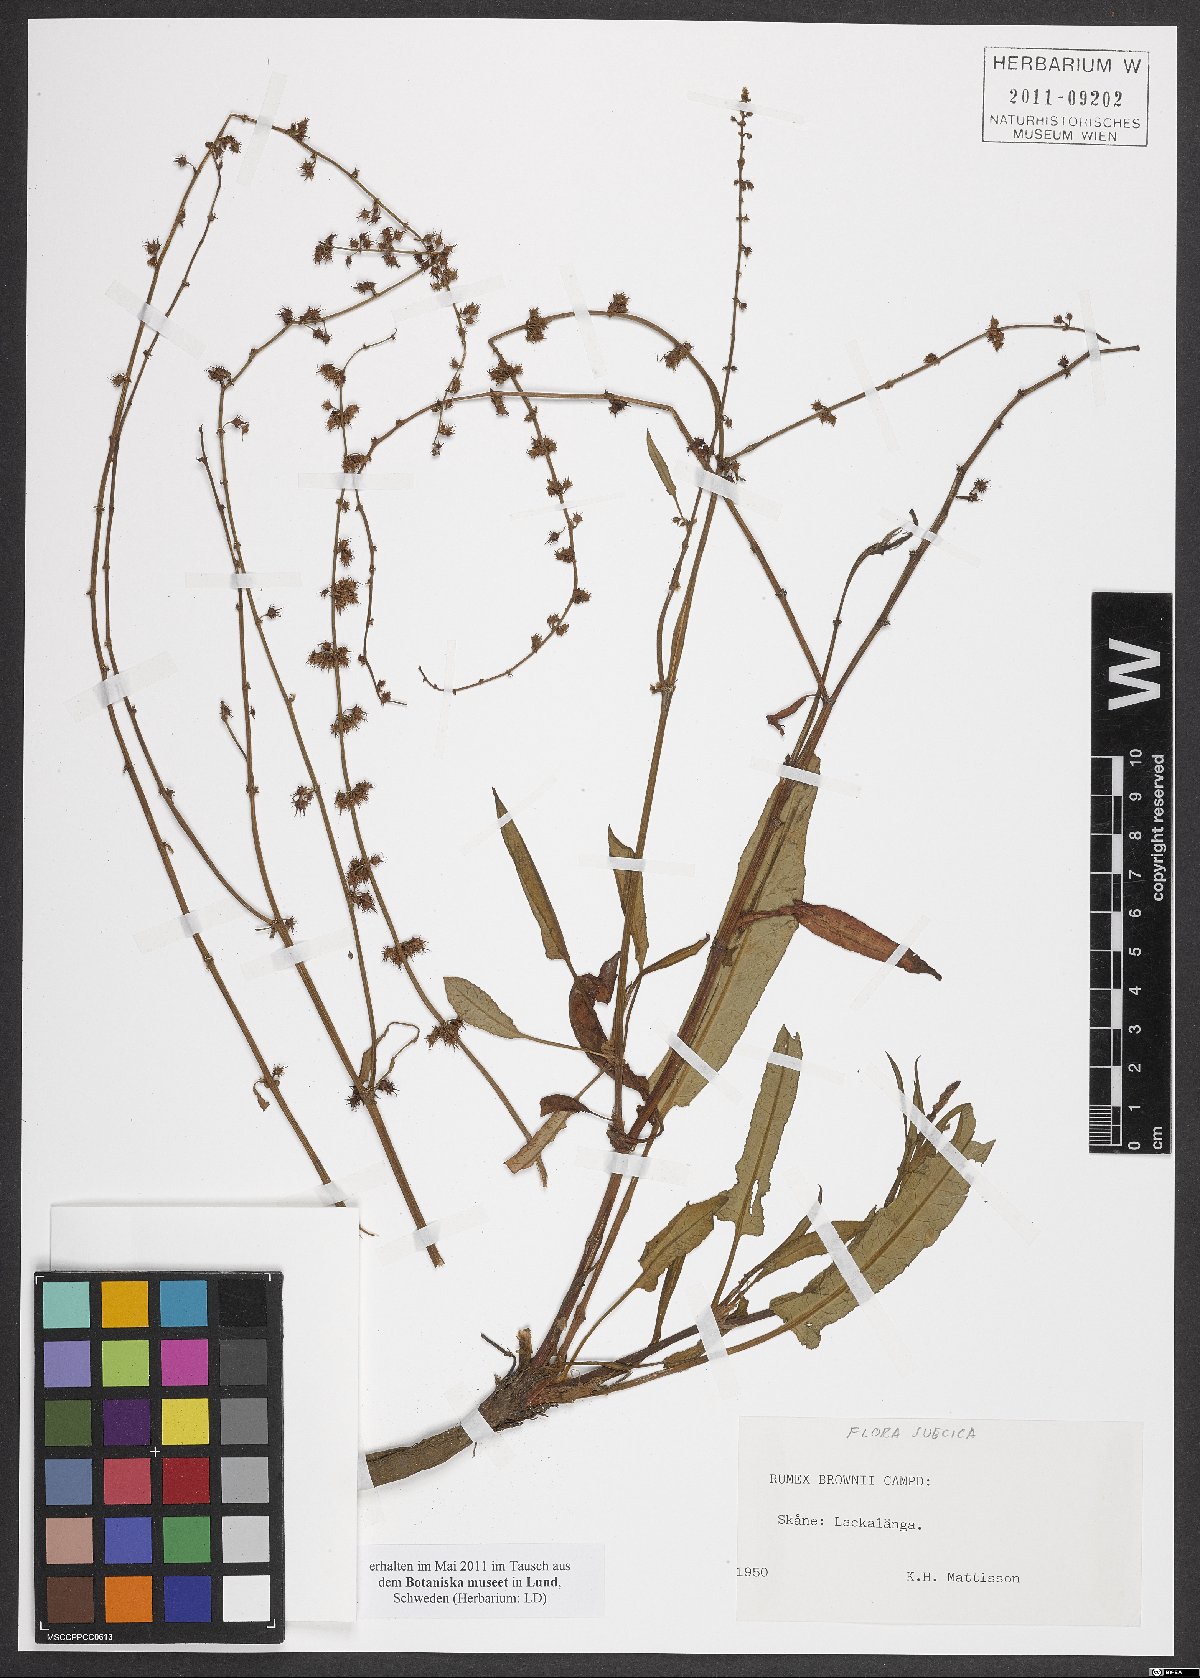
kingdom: Plantae
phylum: Tracheophyta
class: Magnoliopsida
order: Caryophyllales
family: Polygonaceae
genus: Rumex
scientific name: Rumex brownii
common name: Hooked dock
